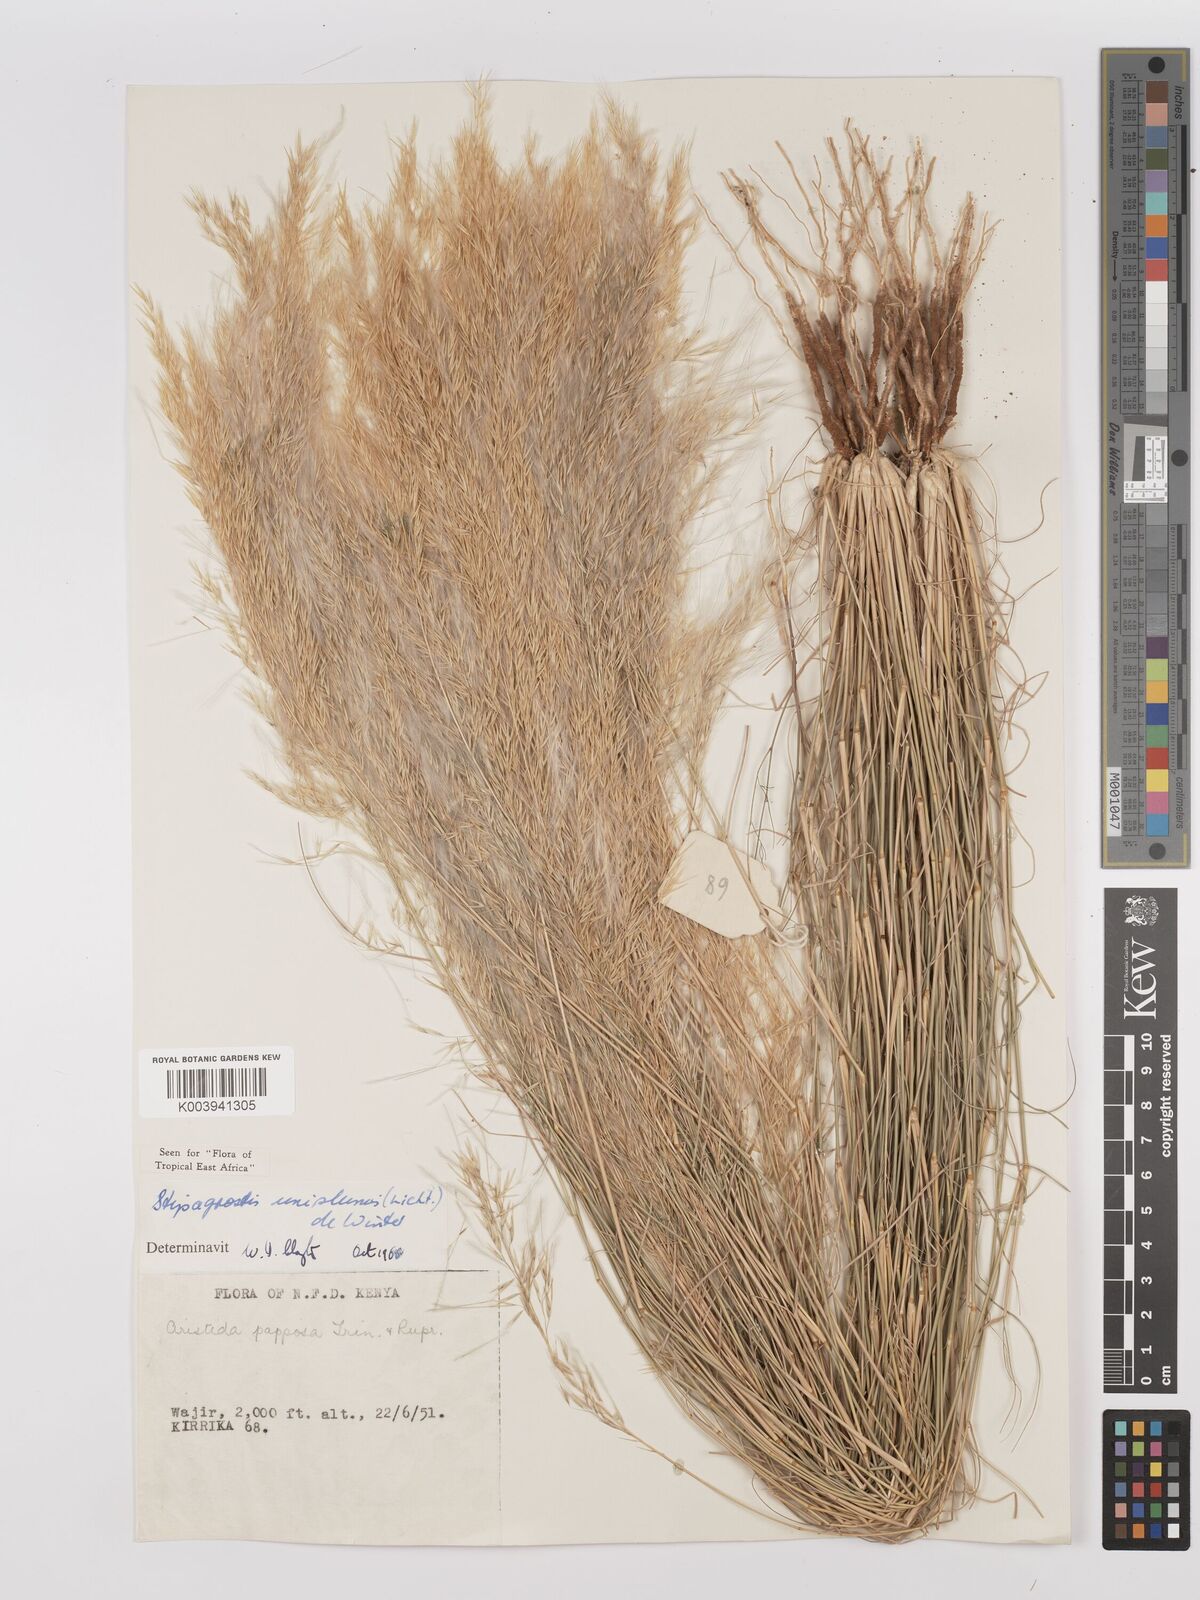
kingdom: Plantae
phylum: Tracheophyta
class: Liliopsida
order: Poales
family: Poaceae
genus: Stipagrostis
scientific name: Stipagrostis uniplumis
